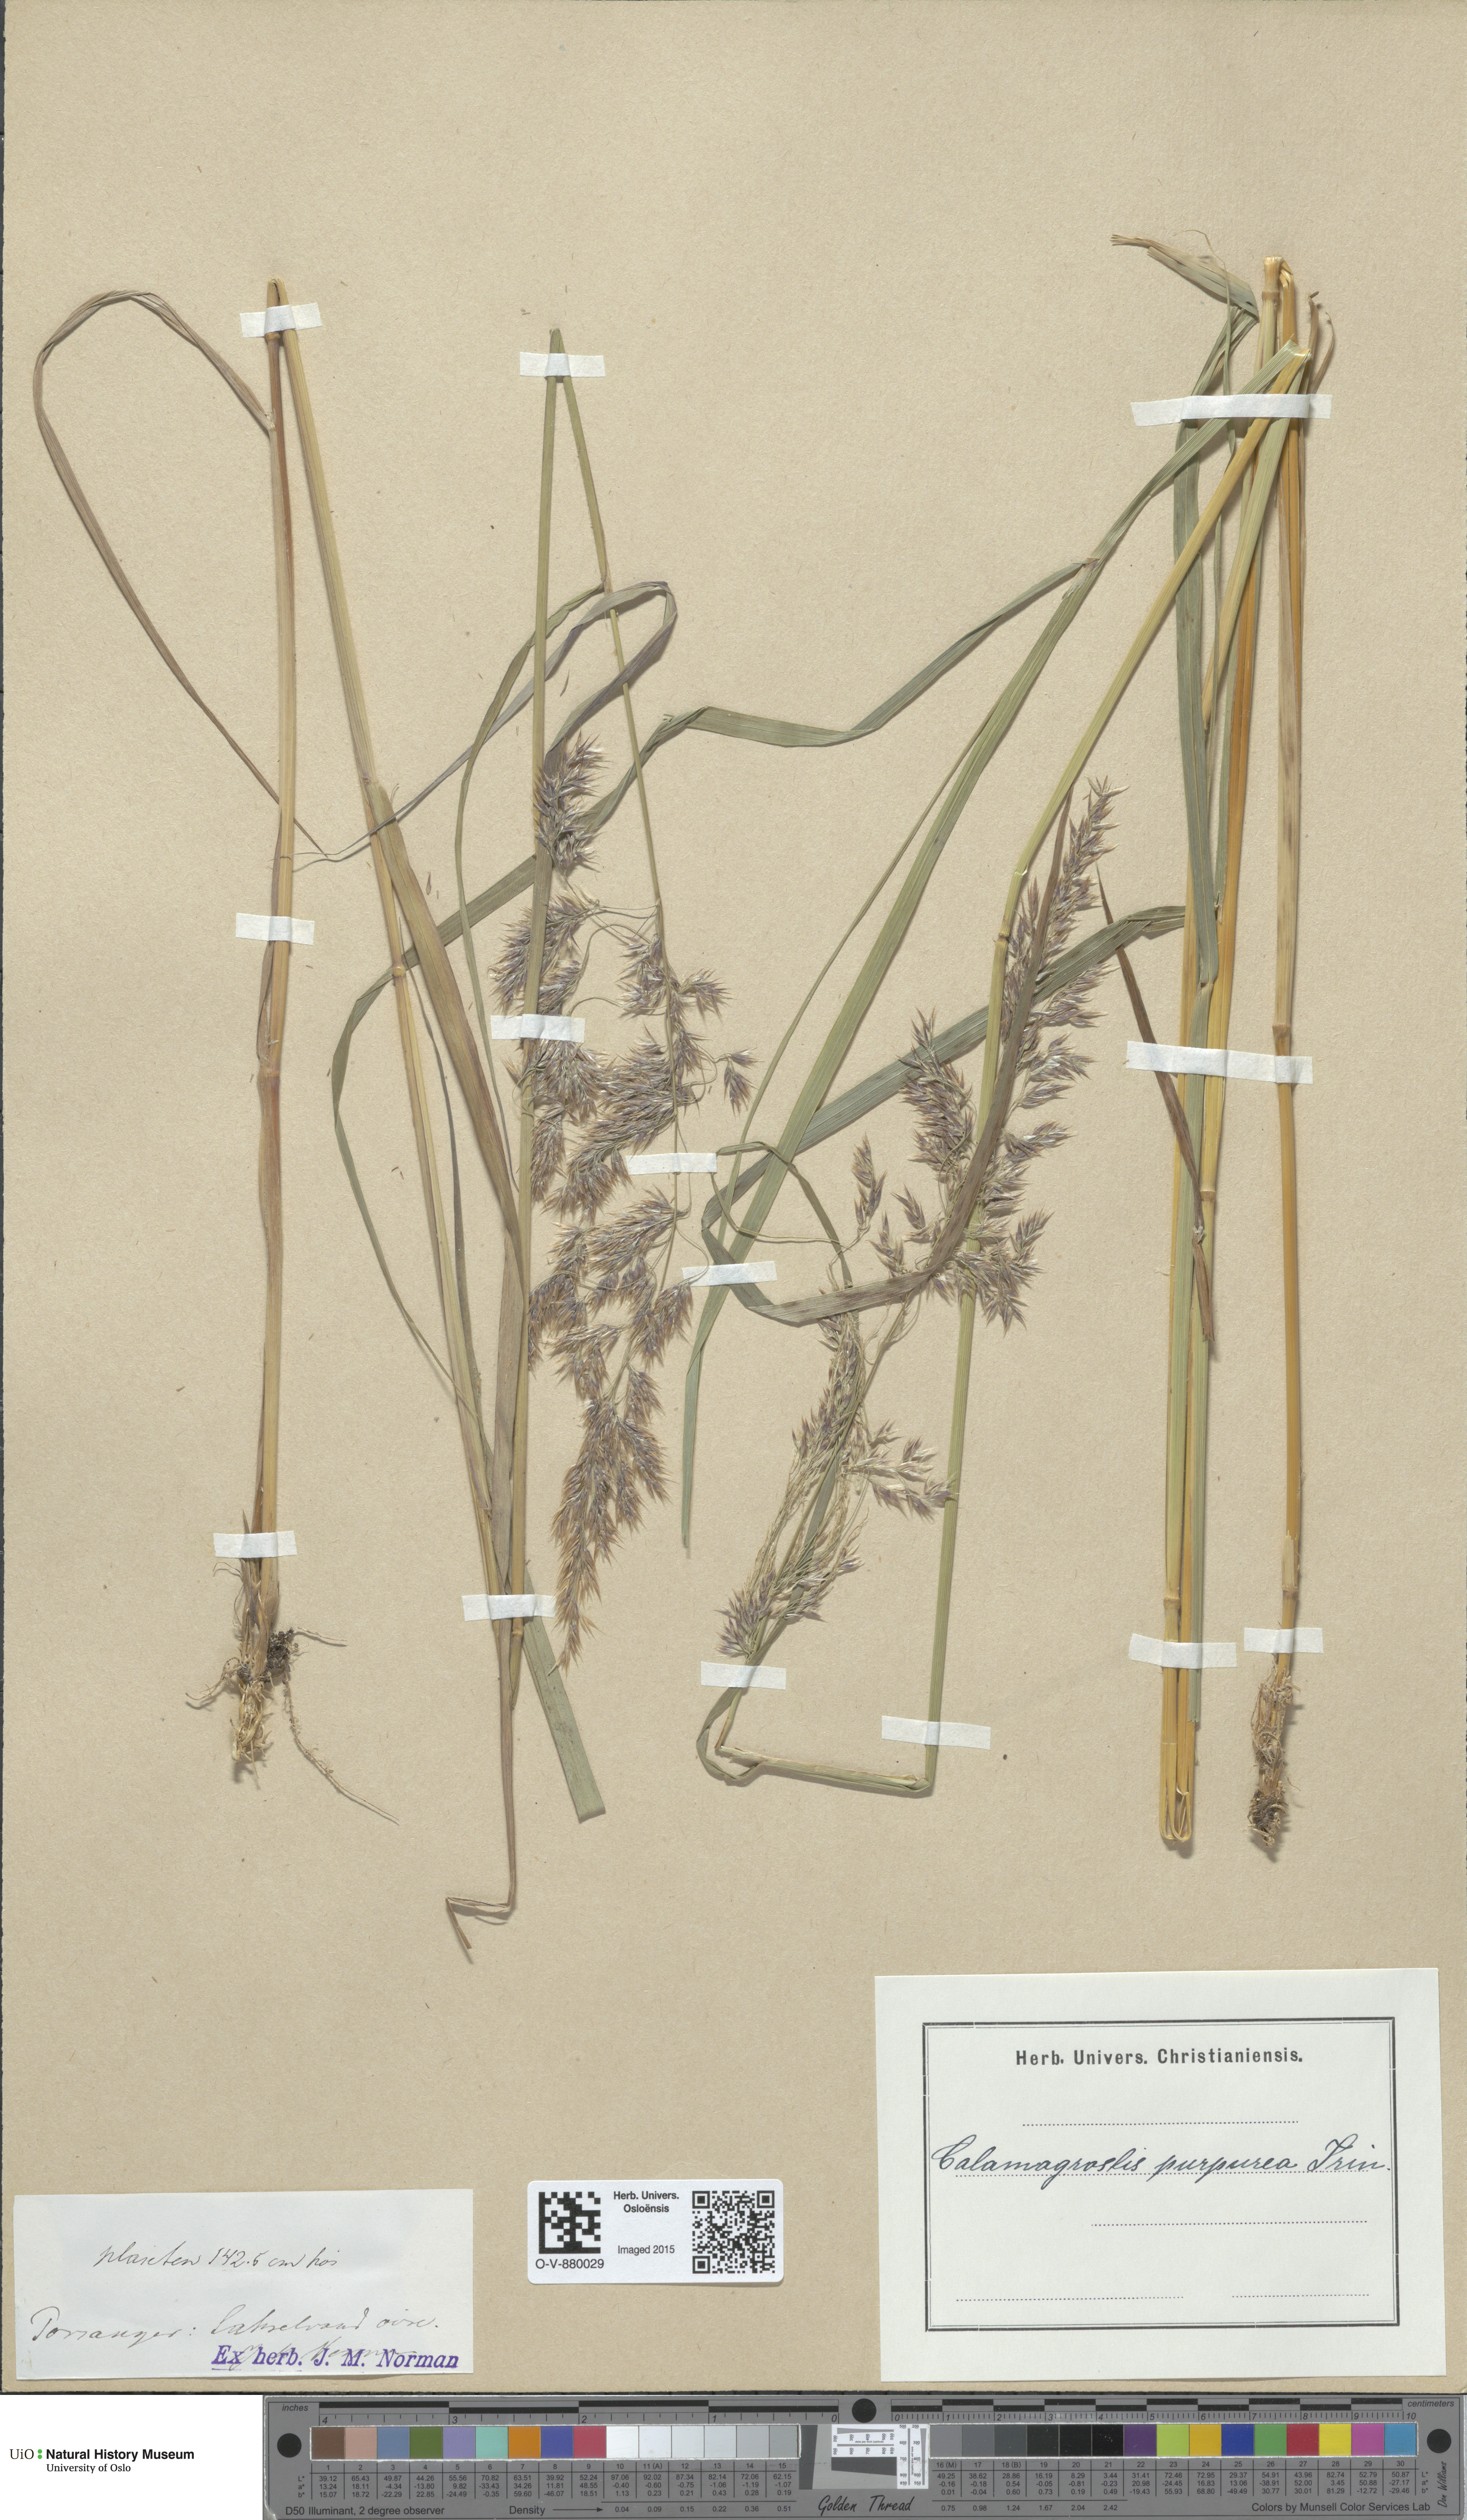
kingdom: Plantae
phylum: Tracheophyta
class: Liliopsida
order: Poales
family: Poaceae
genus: Calamagrostis
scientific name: Calamagrostis purpurea
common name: Scandinavian small-reed
